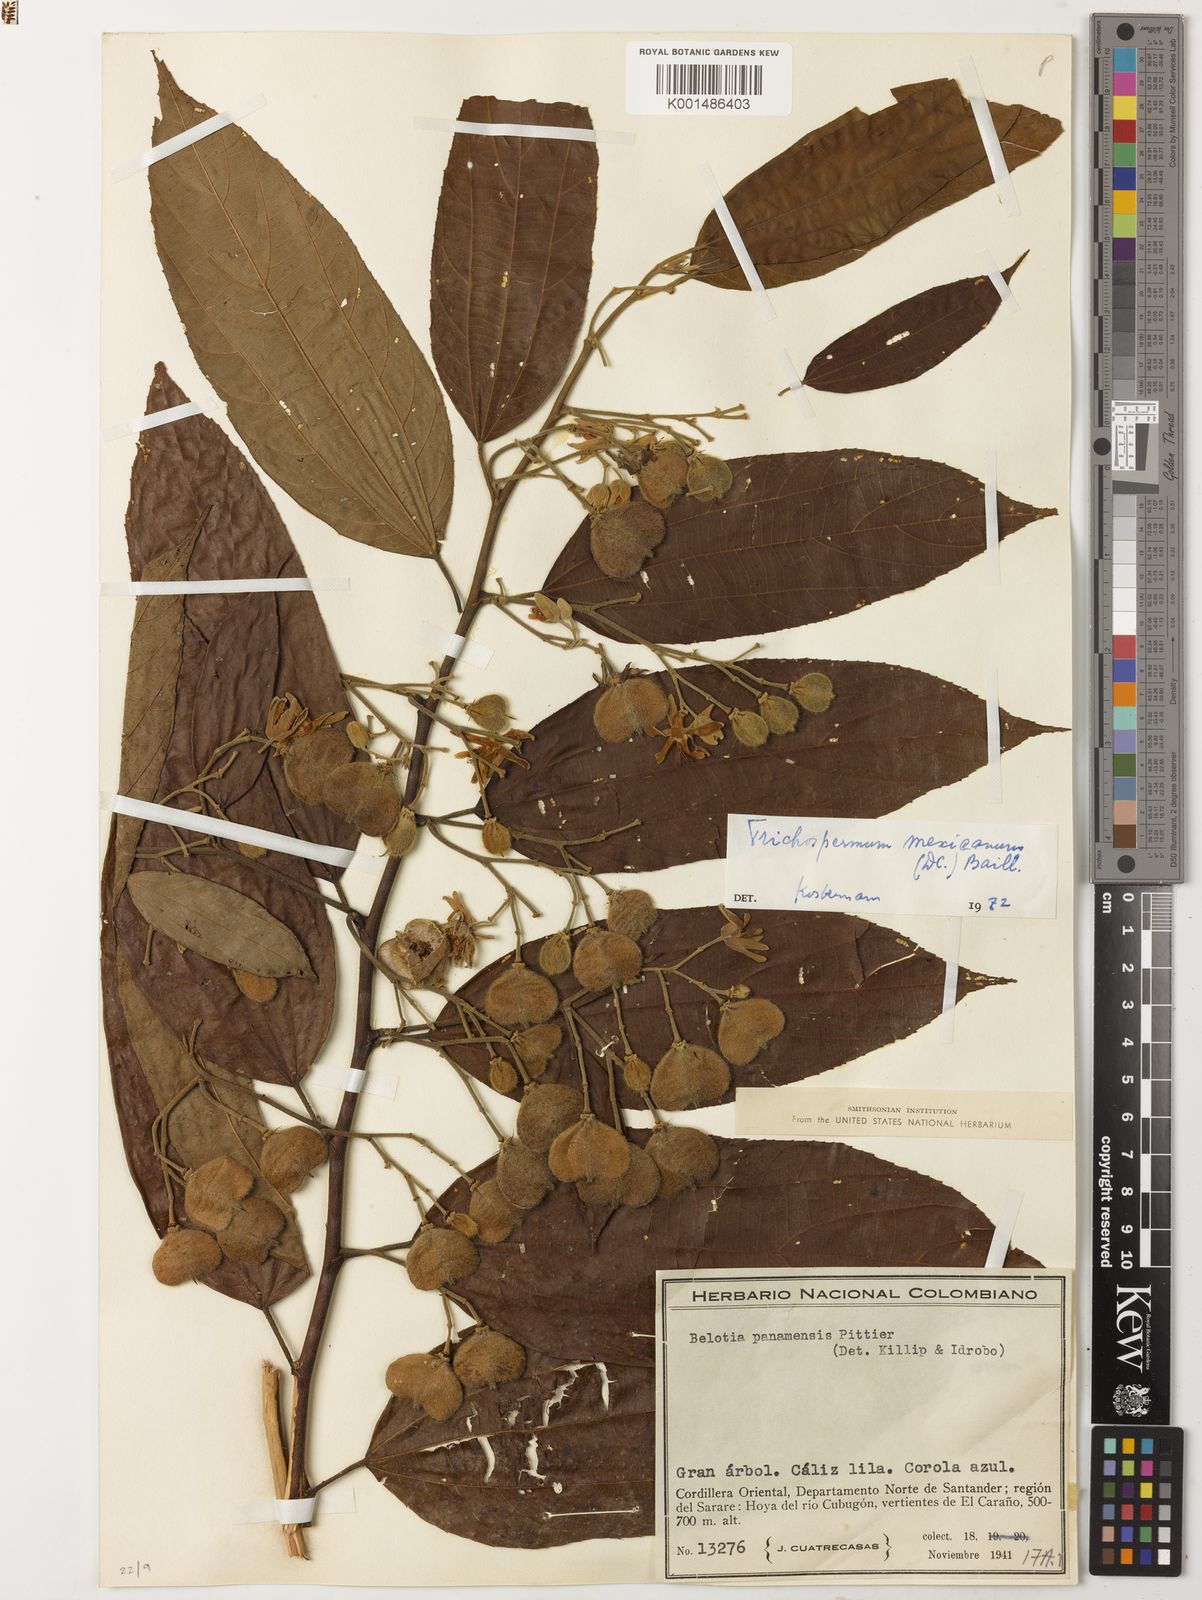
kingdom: Plantae
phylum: Tracheophyta
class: Magnoliopsida
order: Malvales
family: Malvaceae
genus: Trichospermum
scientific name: Trichospermum mexicanum
